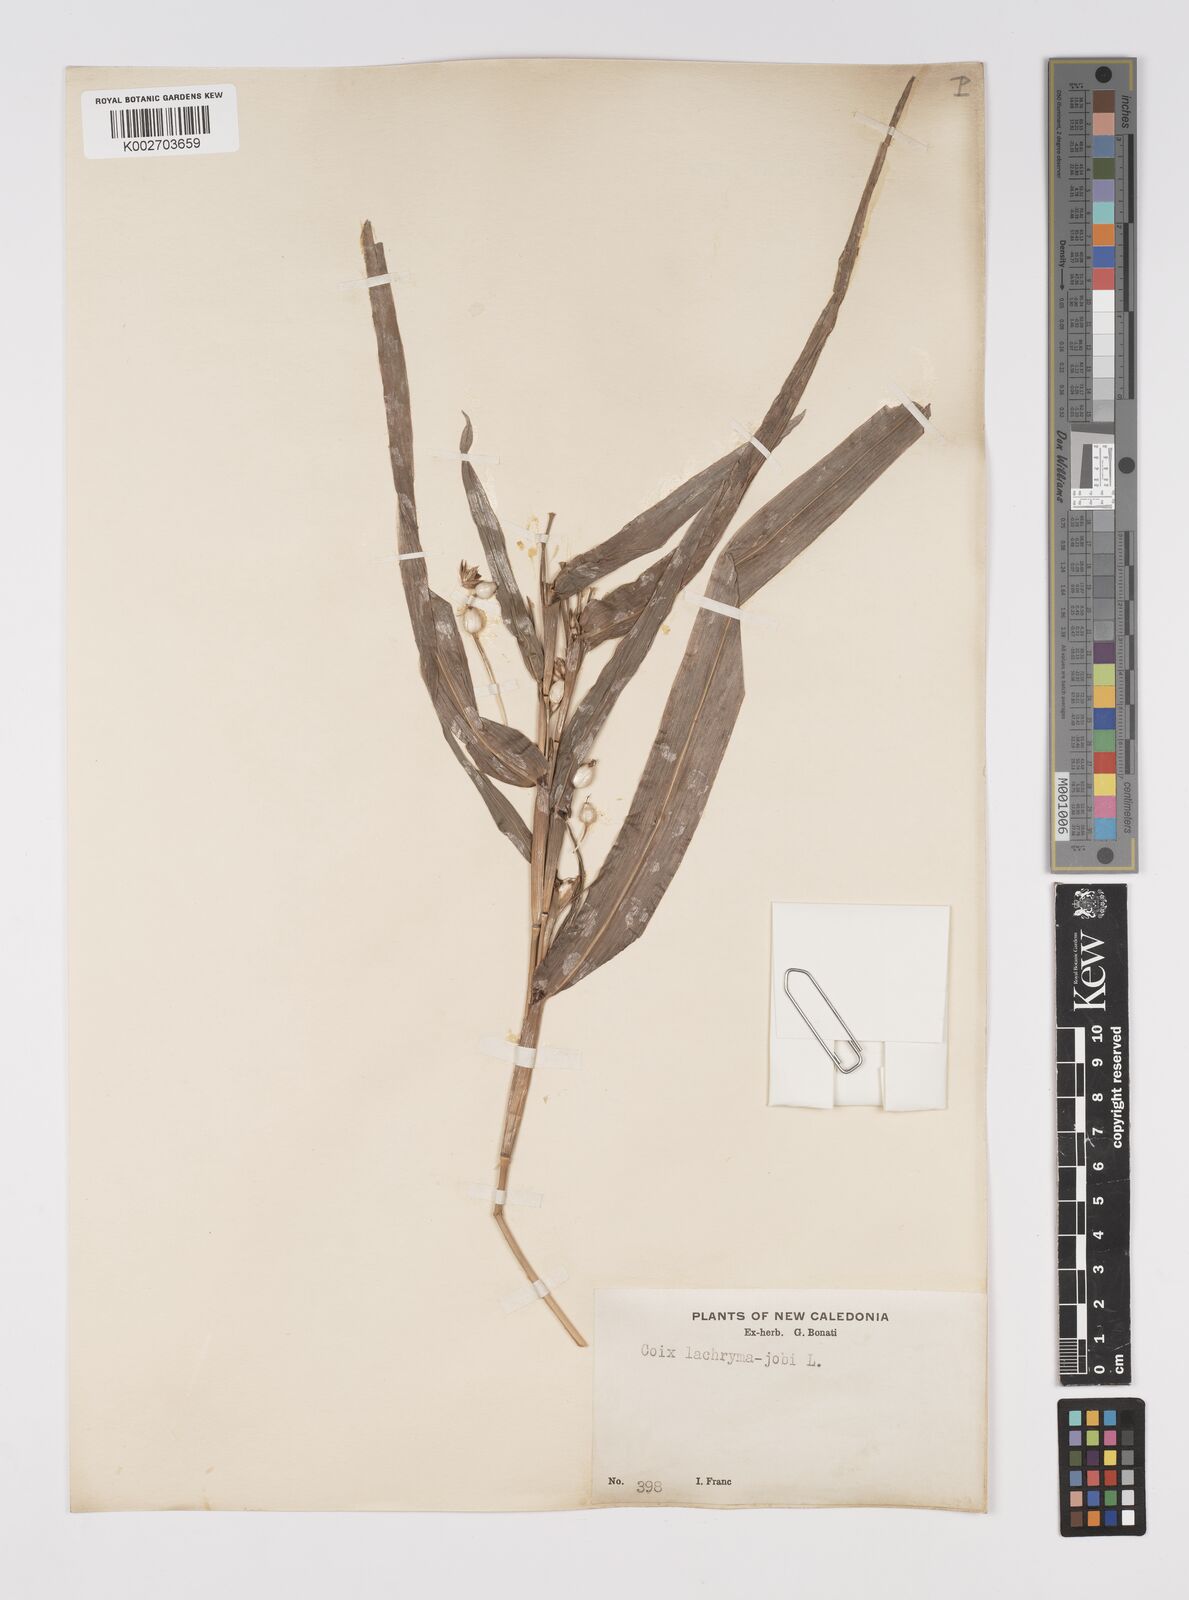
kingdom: Plantae
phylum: Tracheophyta
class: Liliopsida
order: Poales
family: Poaceae
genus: Coix
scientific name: Coix lacryma-jobi
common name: Job's tears
